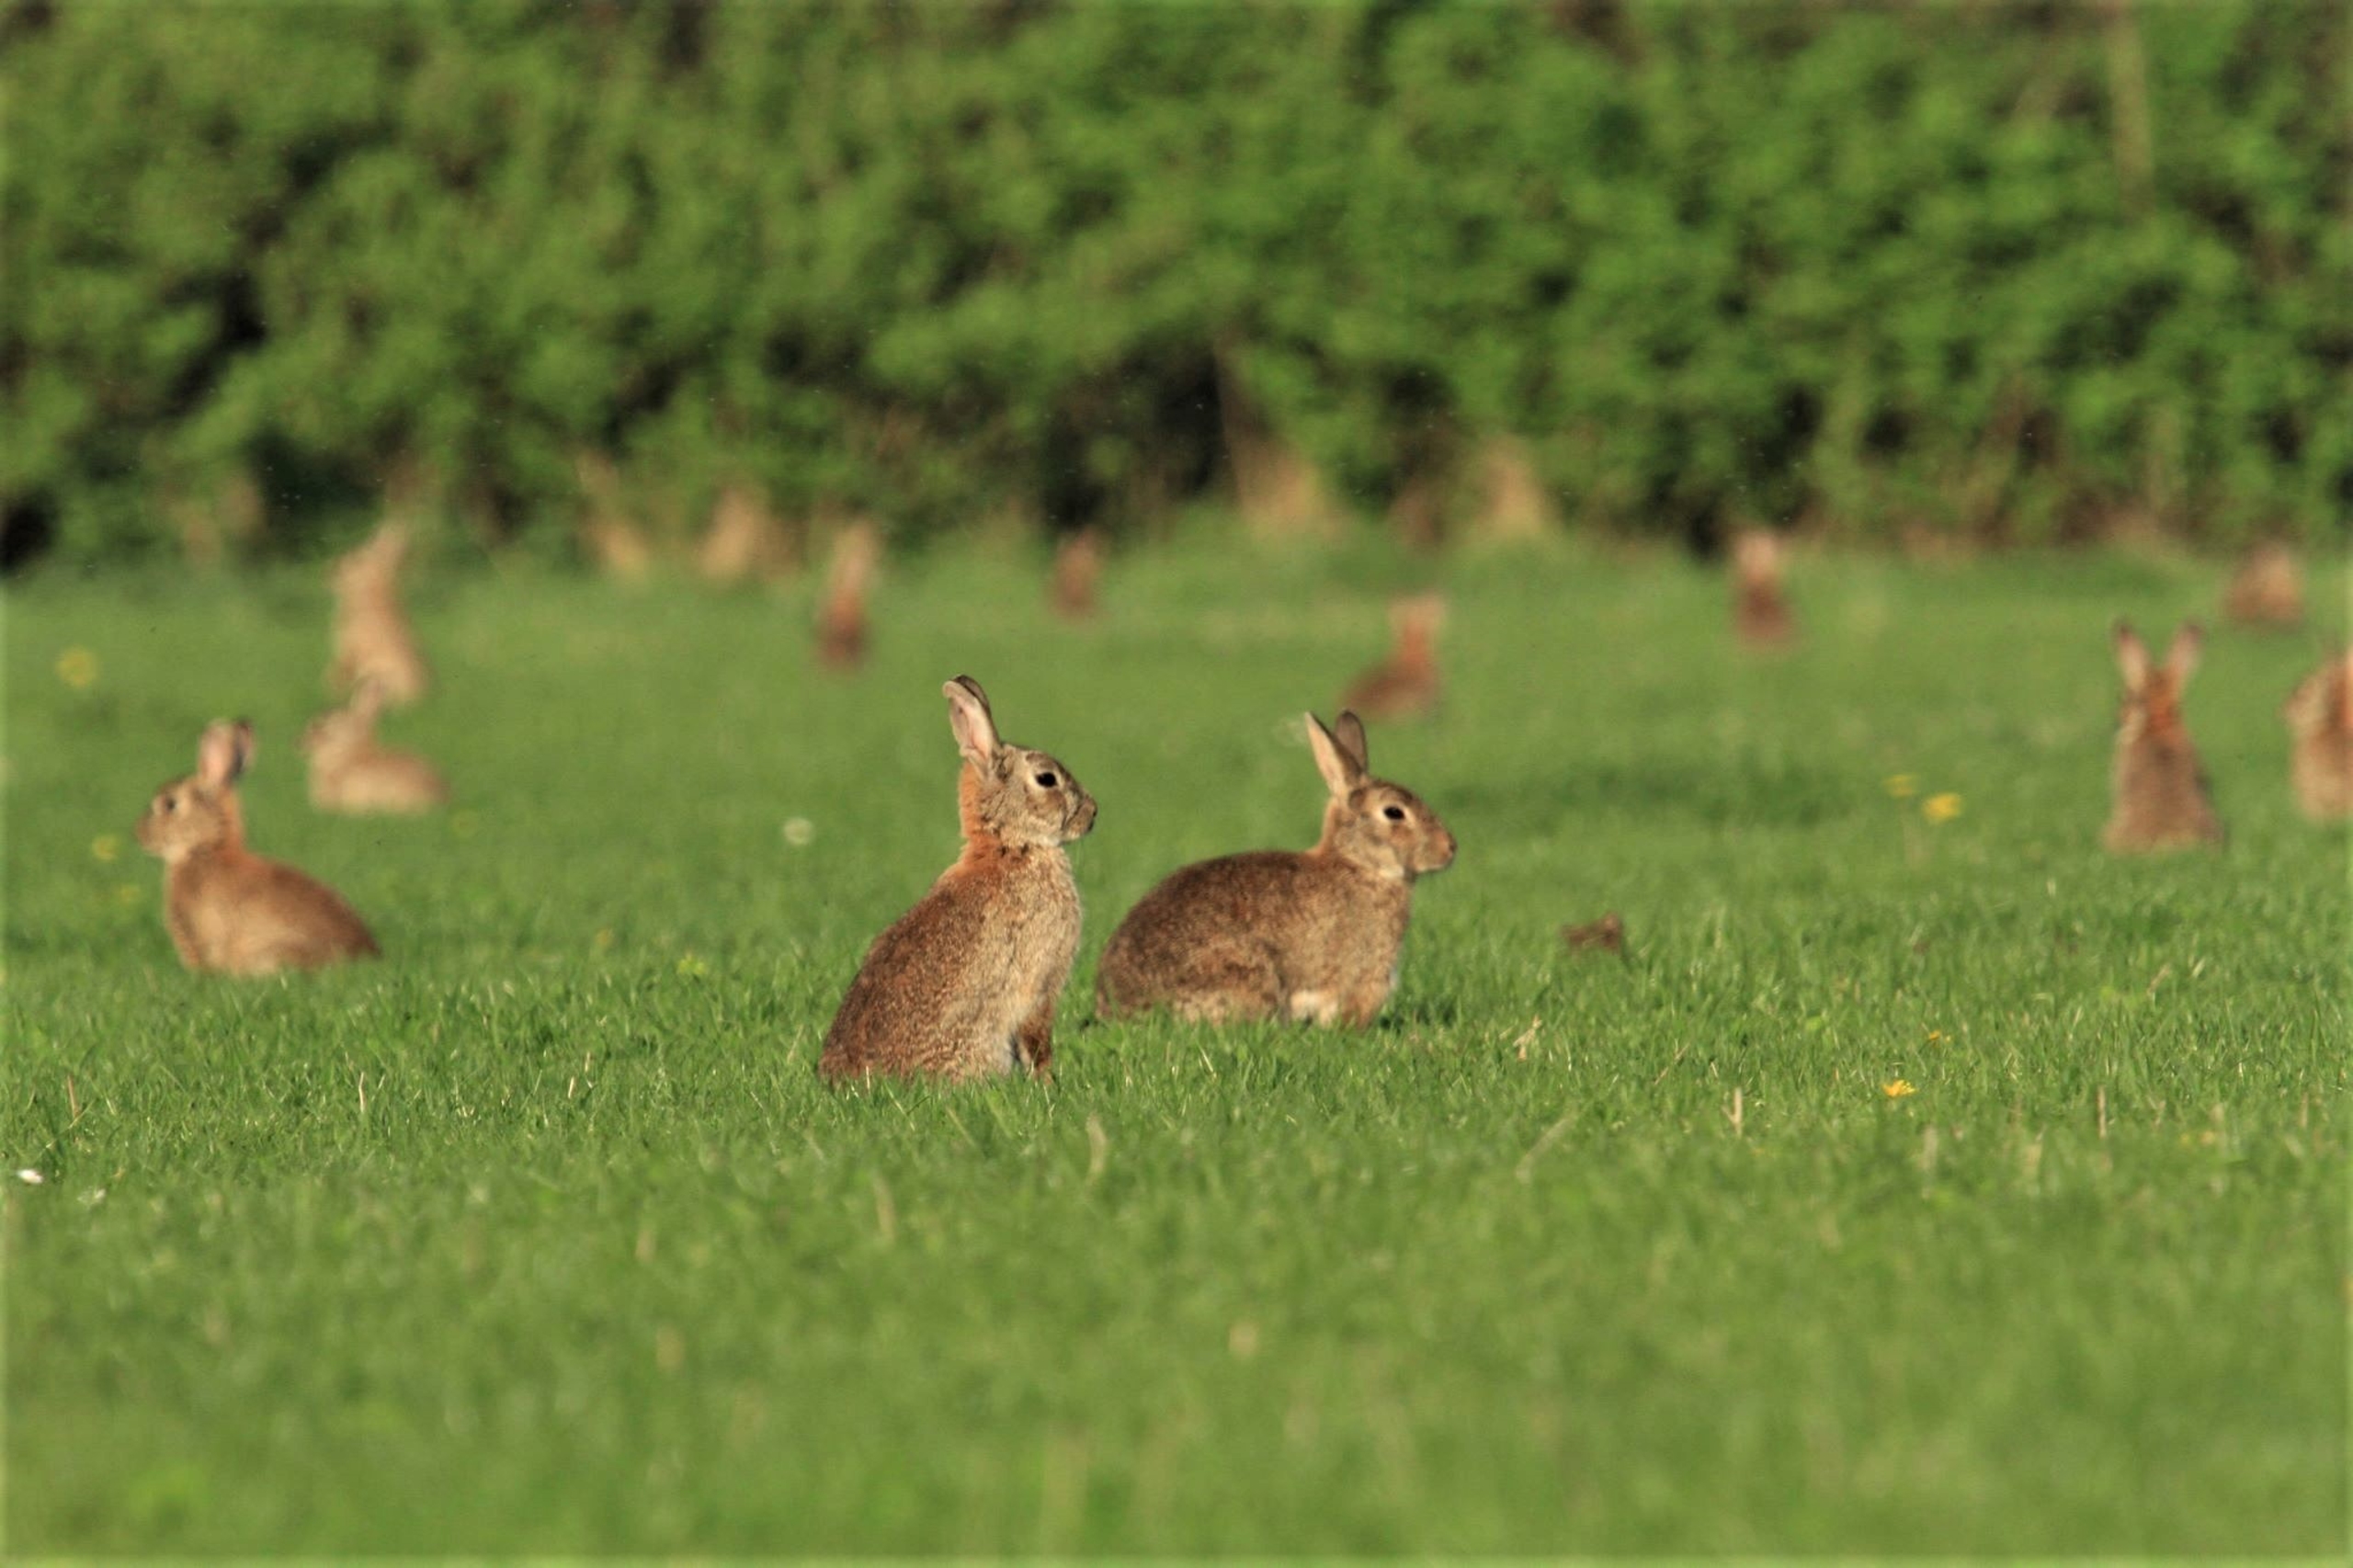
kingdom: Animalia
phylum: Chordata
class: Mammalia
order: Lagomorpha
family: Leporidae
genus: Oryctolagus
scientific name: Oryctolagus cuniculus
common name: Vildkanin
